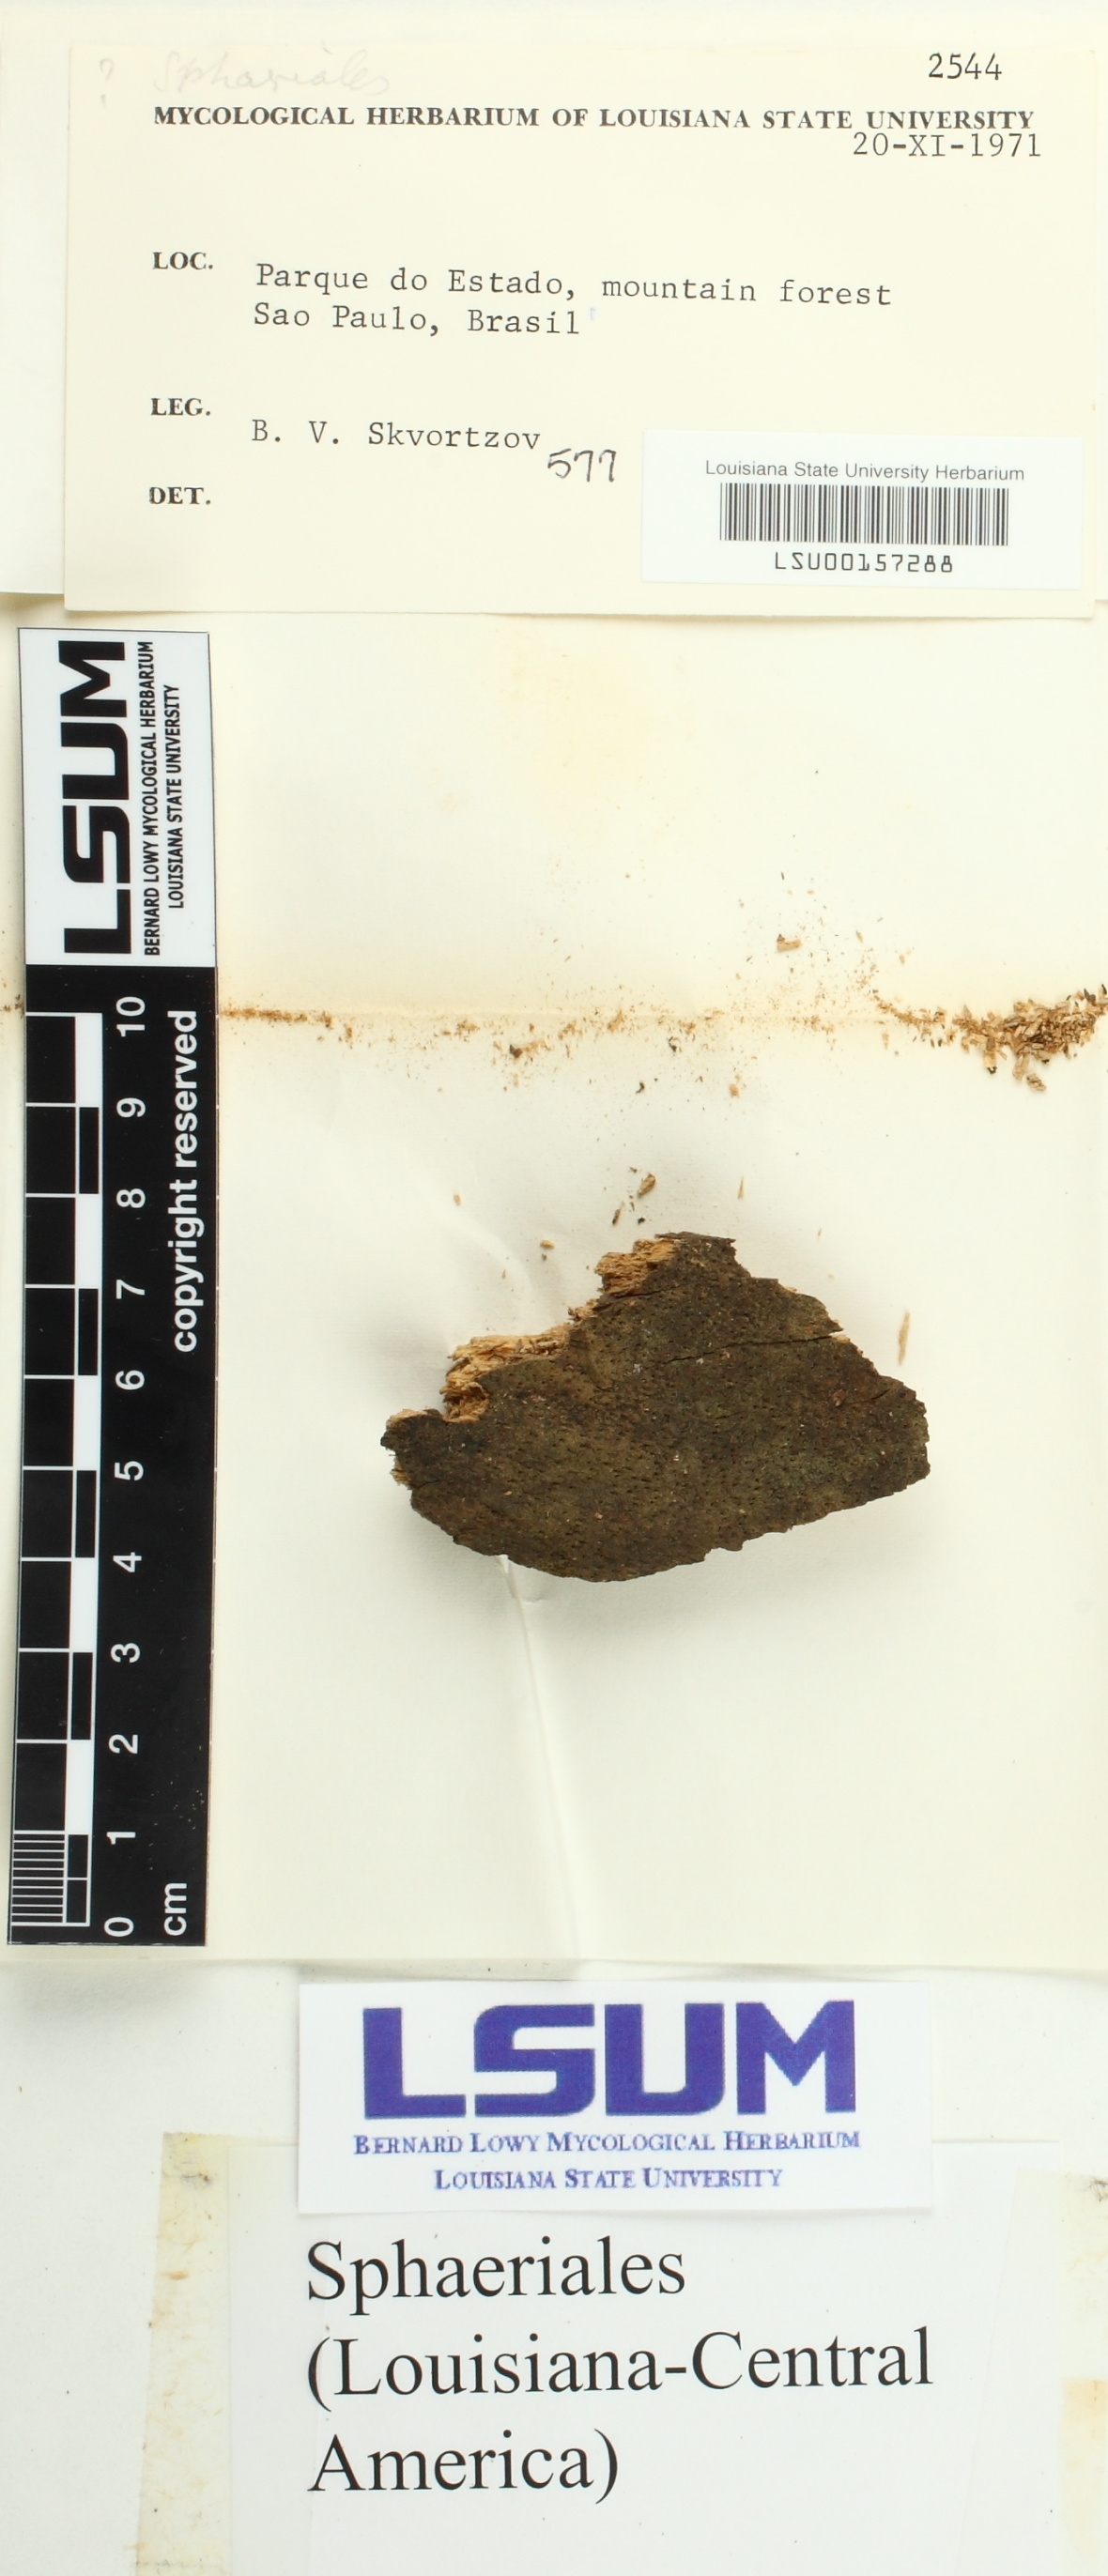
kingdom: Fungi
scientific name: Fungi
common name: Fungi
